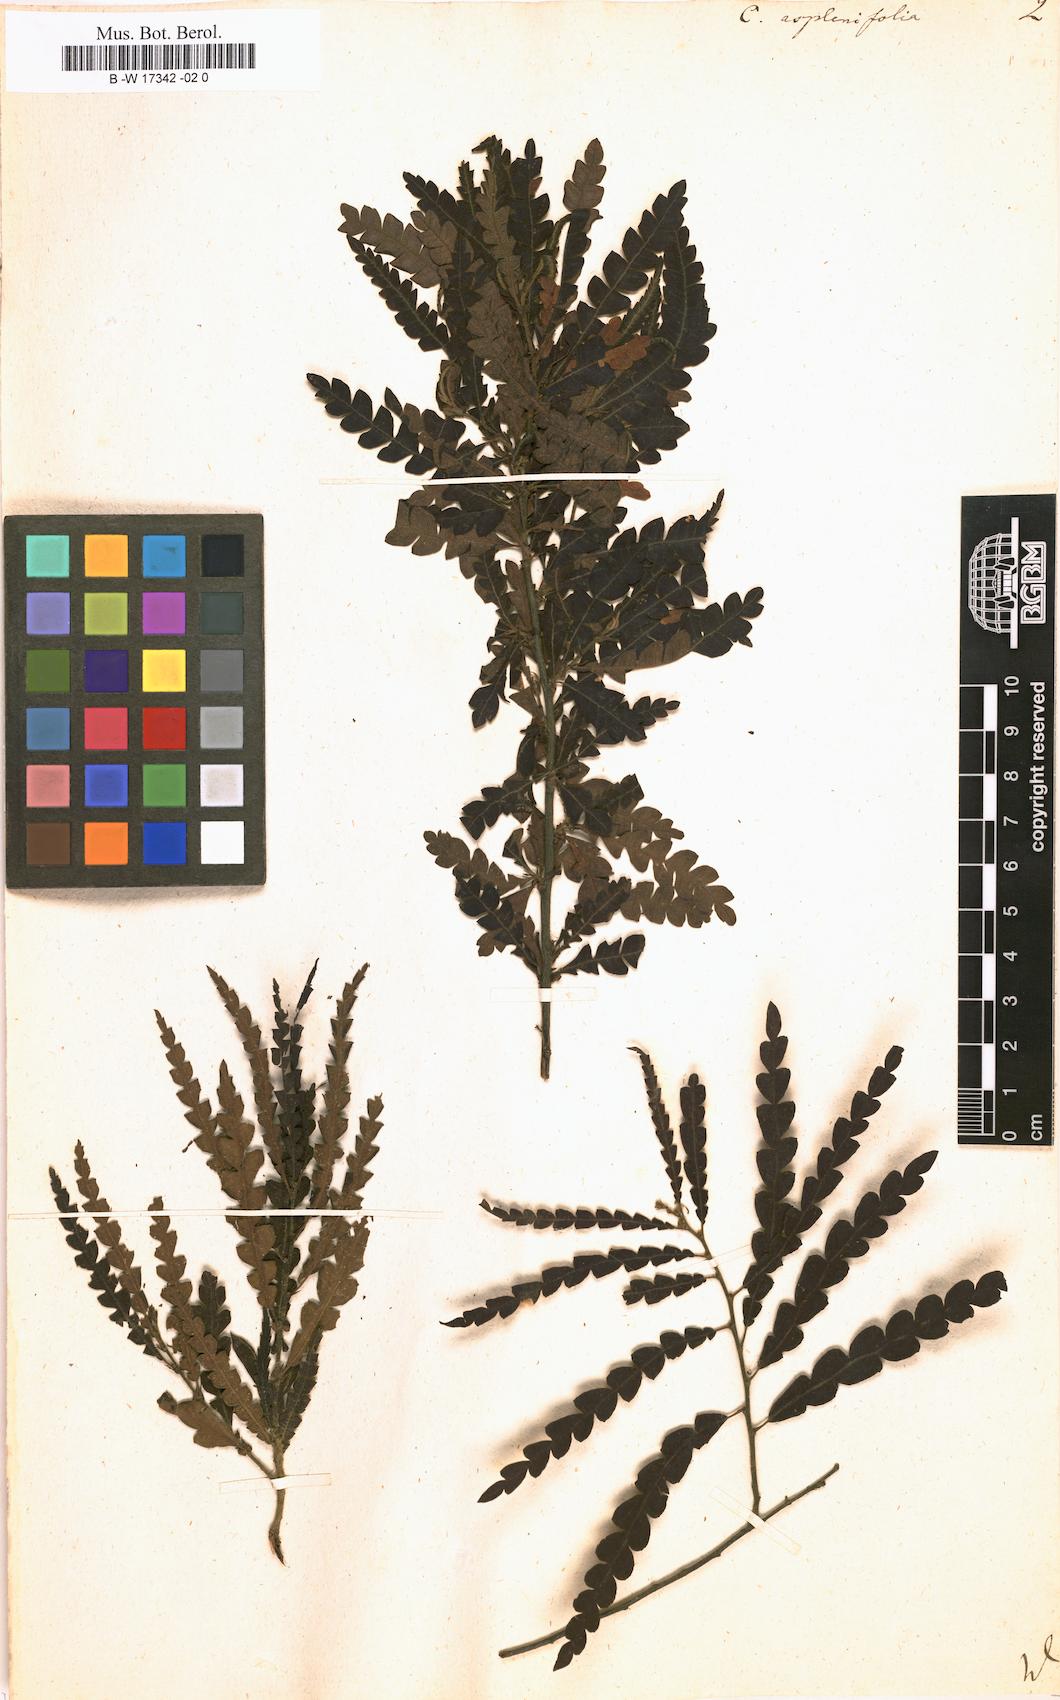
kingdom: Plantae
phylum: Tracheophyta
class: Magnoliopsida
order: Fagales
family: Myricaceae
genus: Comptonia
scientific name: Comptonia aspleniifolia
